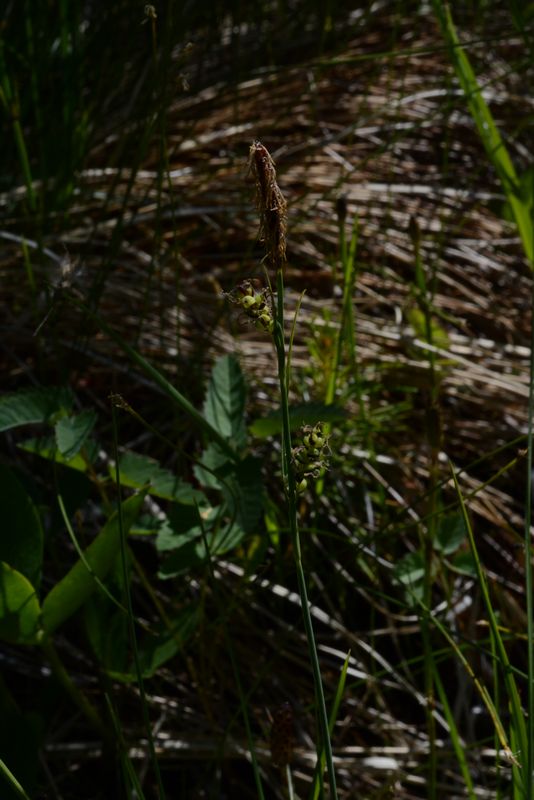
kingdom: Plantae
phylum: Tracheophyta
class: Liliopsida
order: Poales
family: Cyperaceae
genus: Carex
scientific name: Carex
